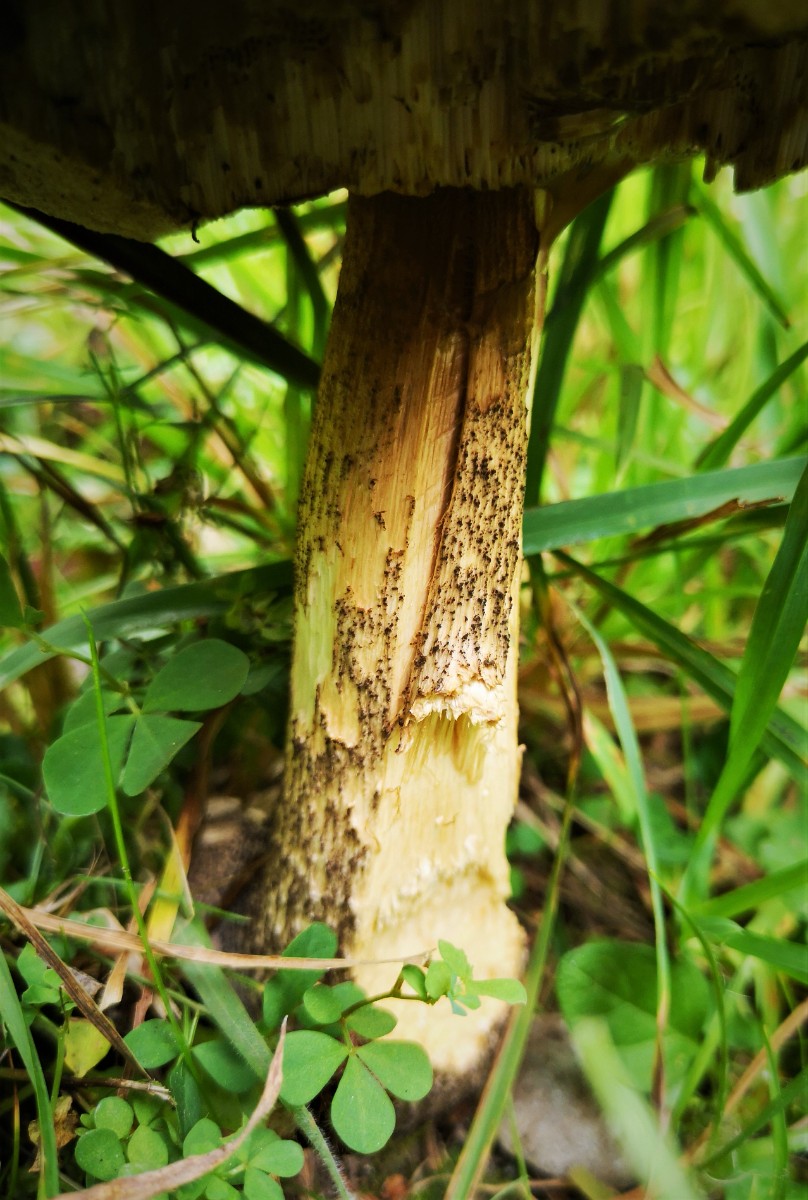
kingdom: Fungi
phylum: Basidiomycota
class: Agaricomycetes
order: Boletales
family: Boletaceae
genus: Leccinum
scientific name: Leccinum
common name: skælrørhat
